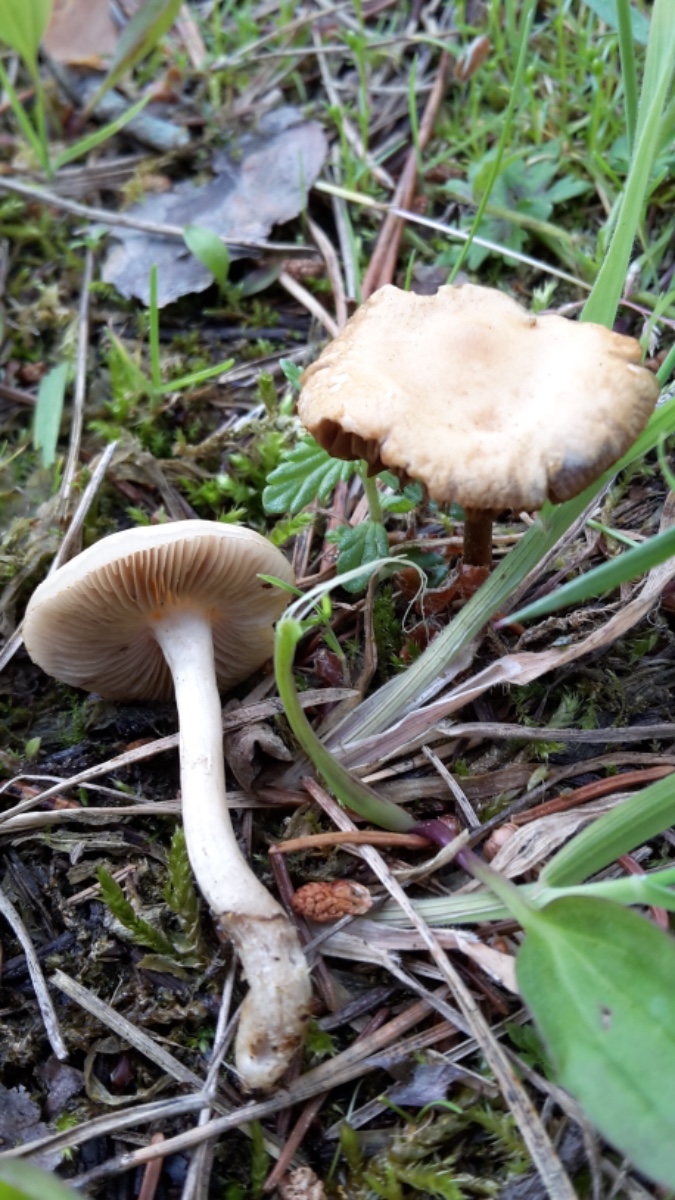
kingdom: Fungi
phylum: Basidiomycota
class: Agaricomycetes
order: Agaricales
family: Strophariaceae
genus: Agrocybe
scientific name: Agrocybe pediades
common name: almindelig agerhat
